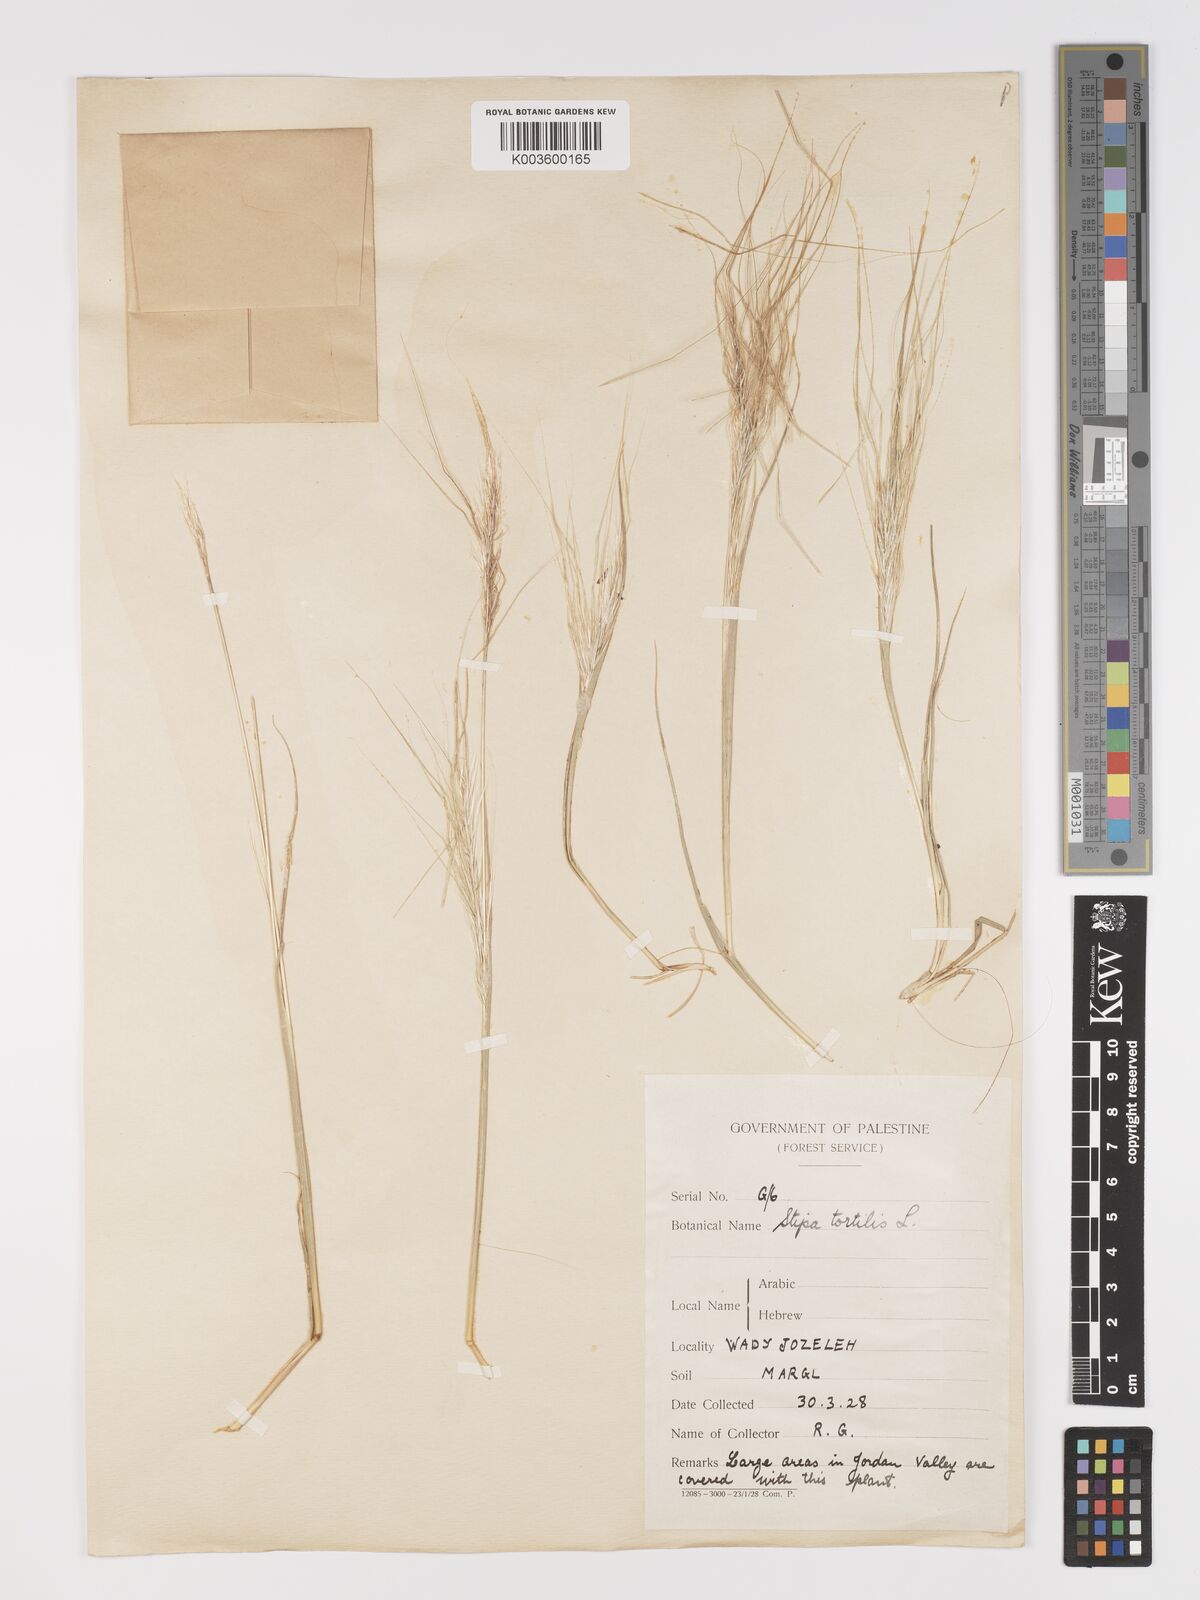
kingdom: Plantae
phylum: Tracheophyta
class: Liliopsida
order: Poales
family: Poaceae
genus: Stipellula
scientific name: Stipellula capensis
